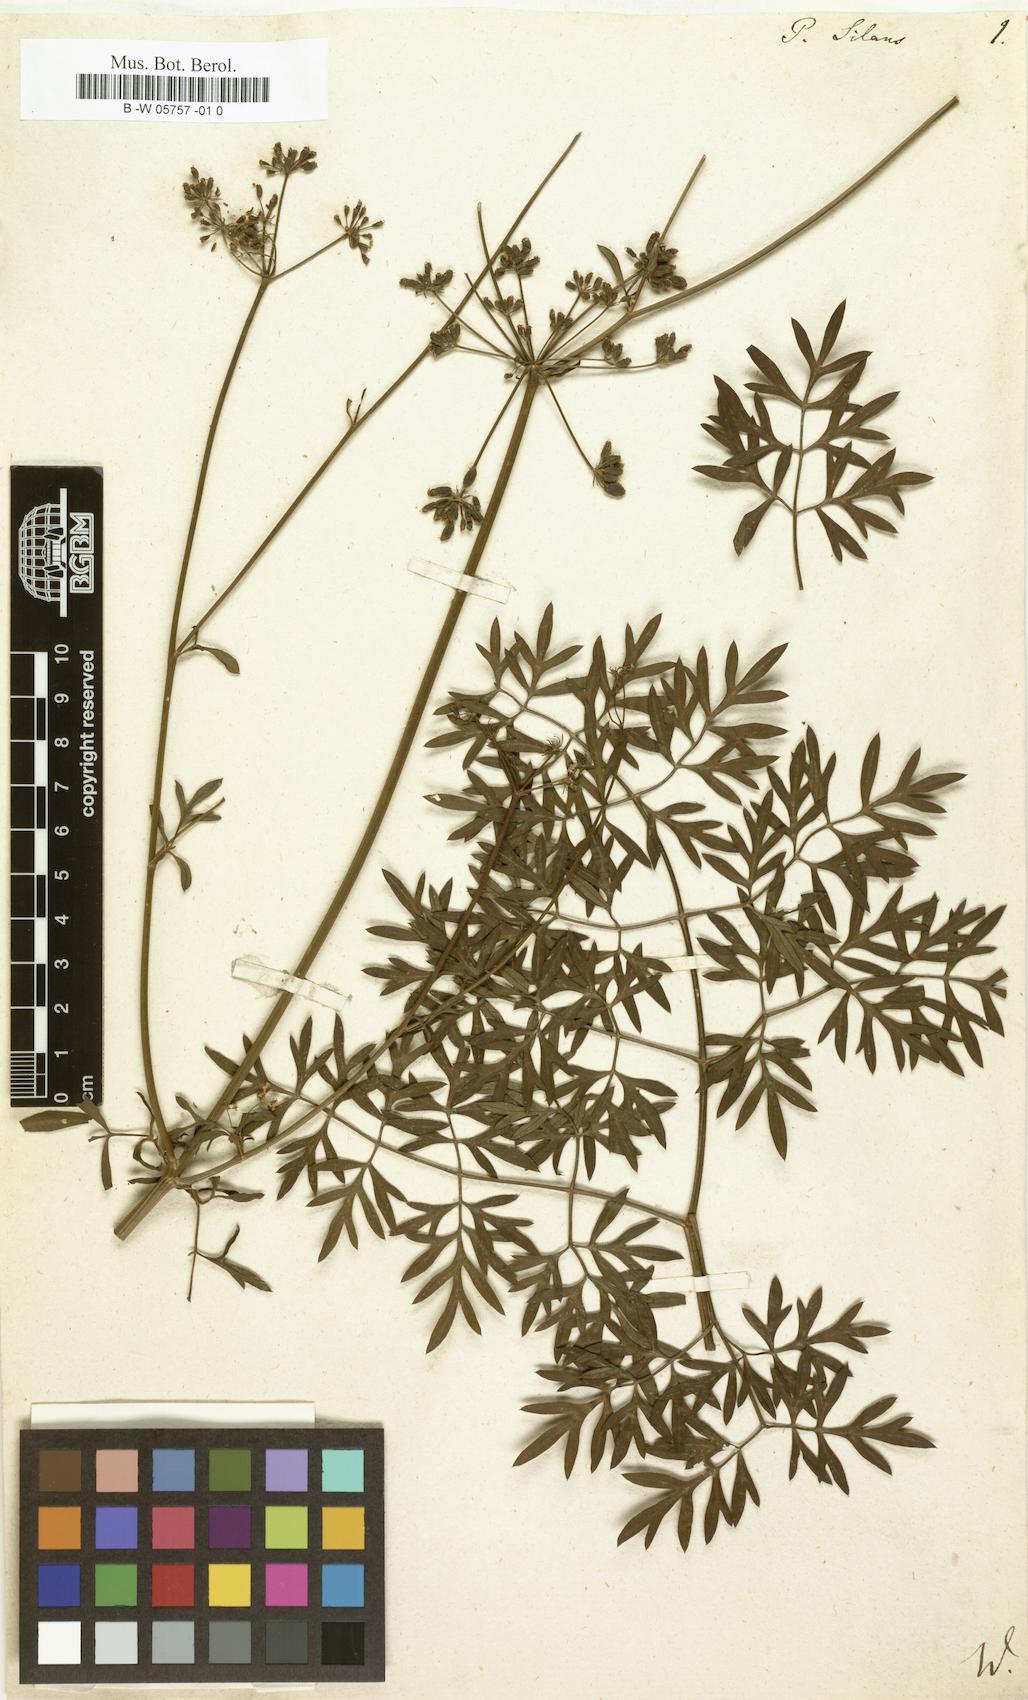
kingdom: Plantae
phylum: Tracheophyta
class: Magnoliopsida
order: Apiales
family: Apiaceae
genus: Silaum
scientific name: Silaum silaus
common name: Pepper-saxifrage
